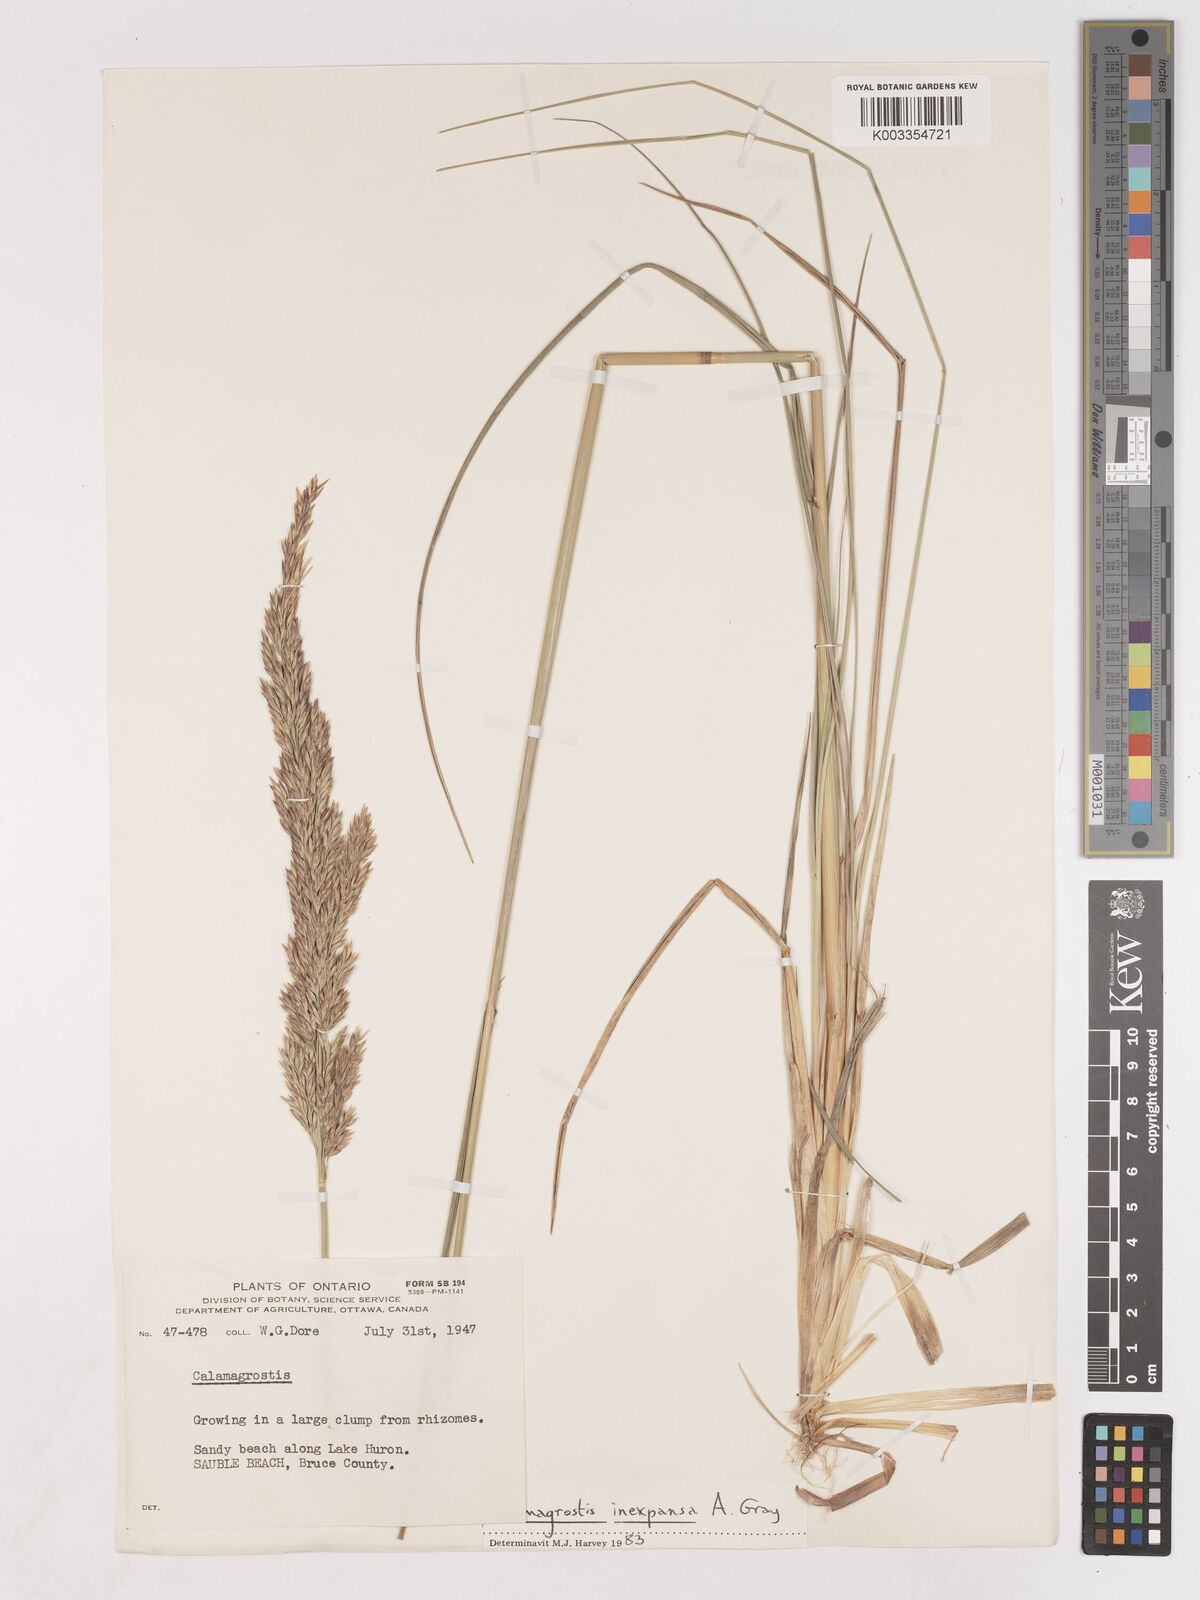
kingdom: Plantae
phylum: Tracheophyta
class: Liliopsida
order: Poales
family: Poaceae
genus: Cinnagrostis
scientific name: Cinnagrostis recta
